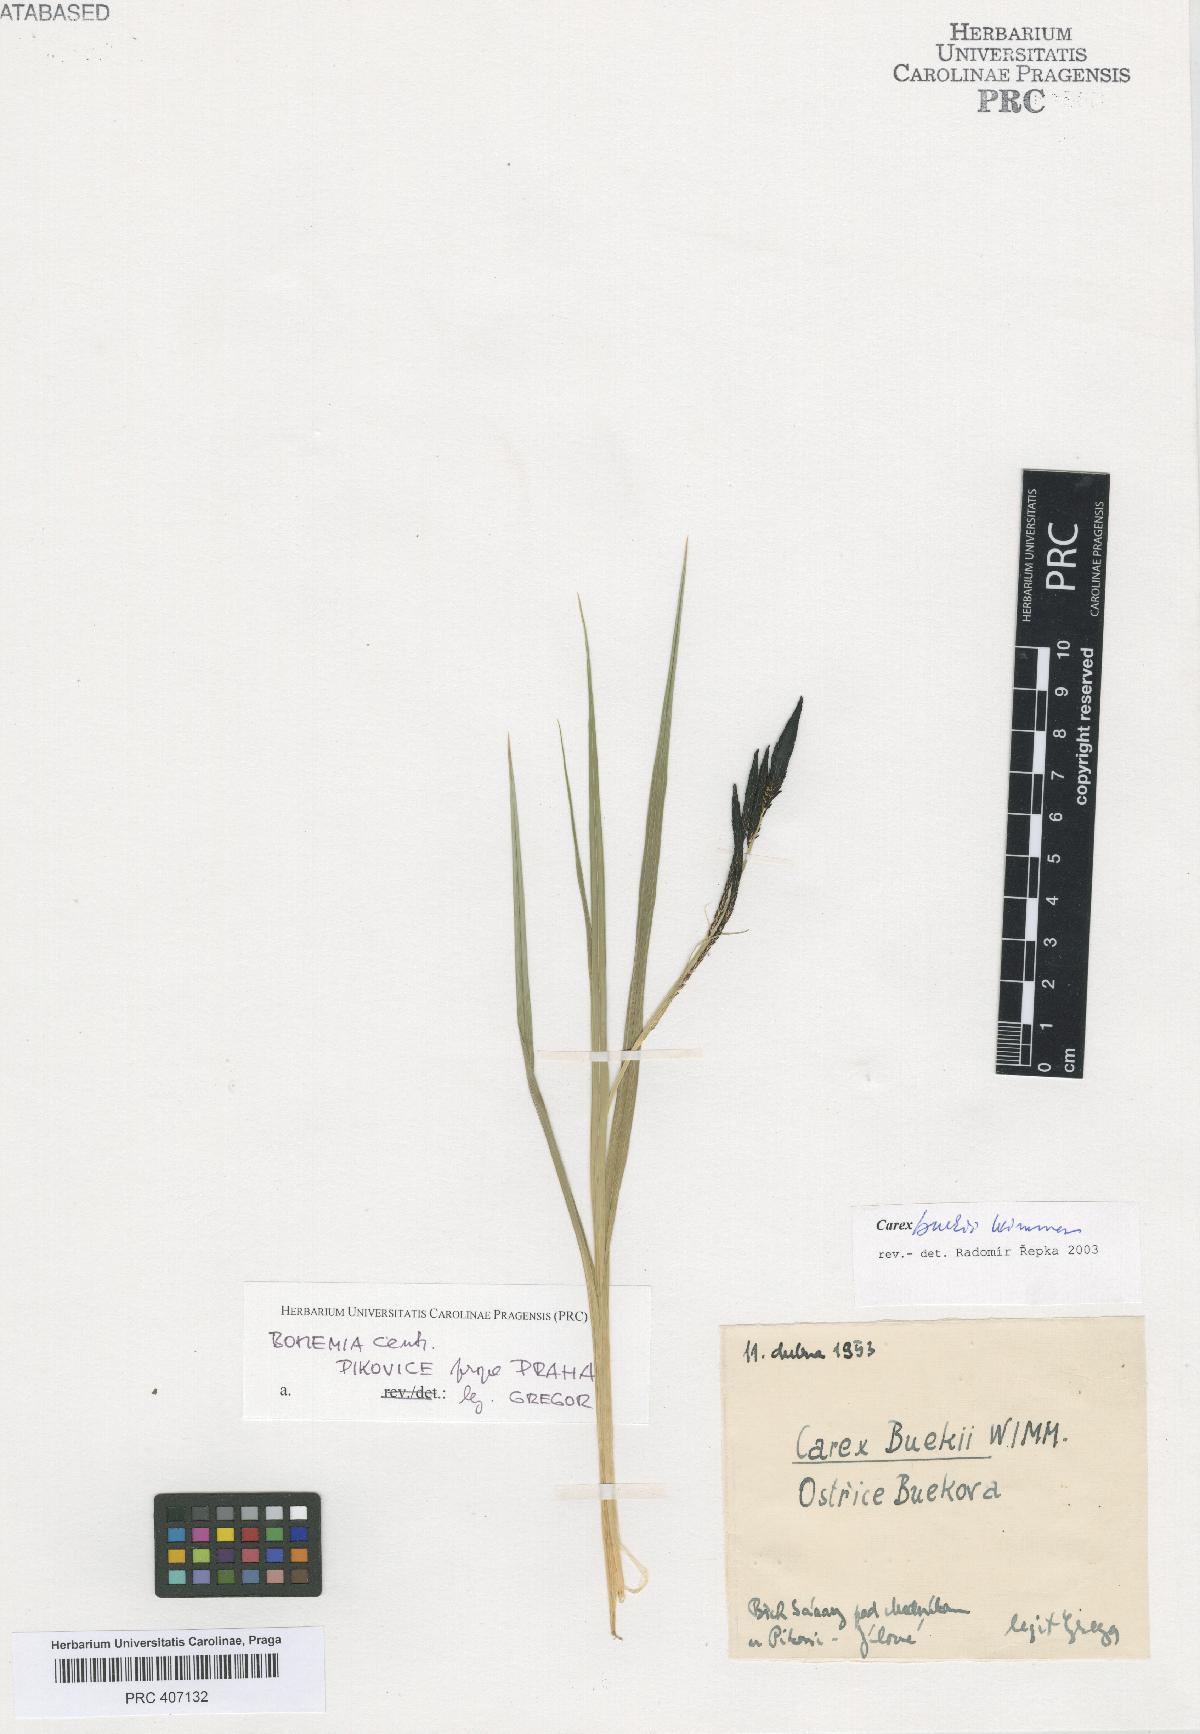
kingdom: Plantae
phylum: Tracheophyta
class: Liliopsida
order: Poales
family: Cyperaceae
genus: Carex
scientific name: Carex buekii
